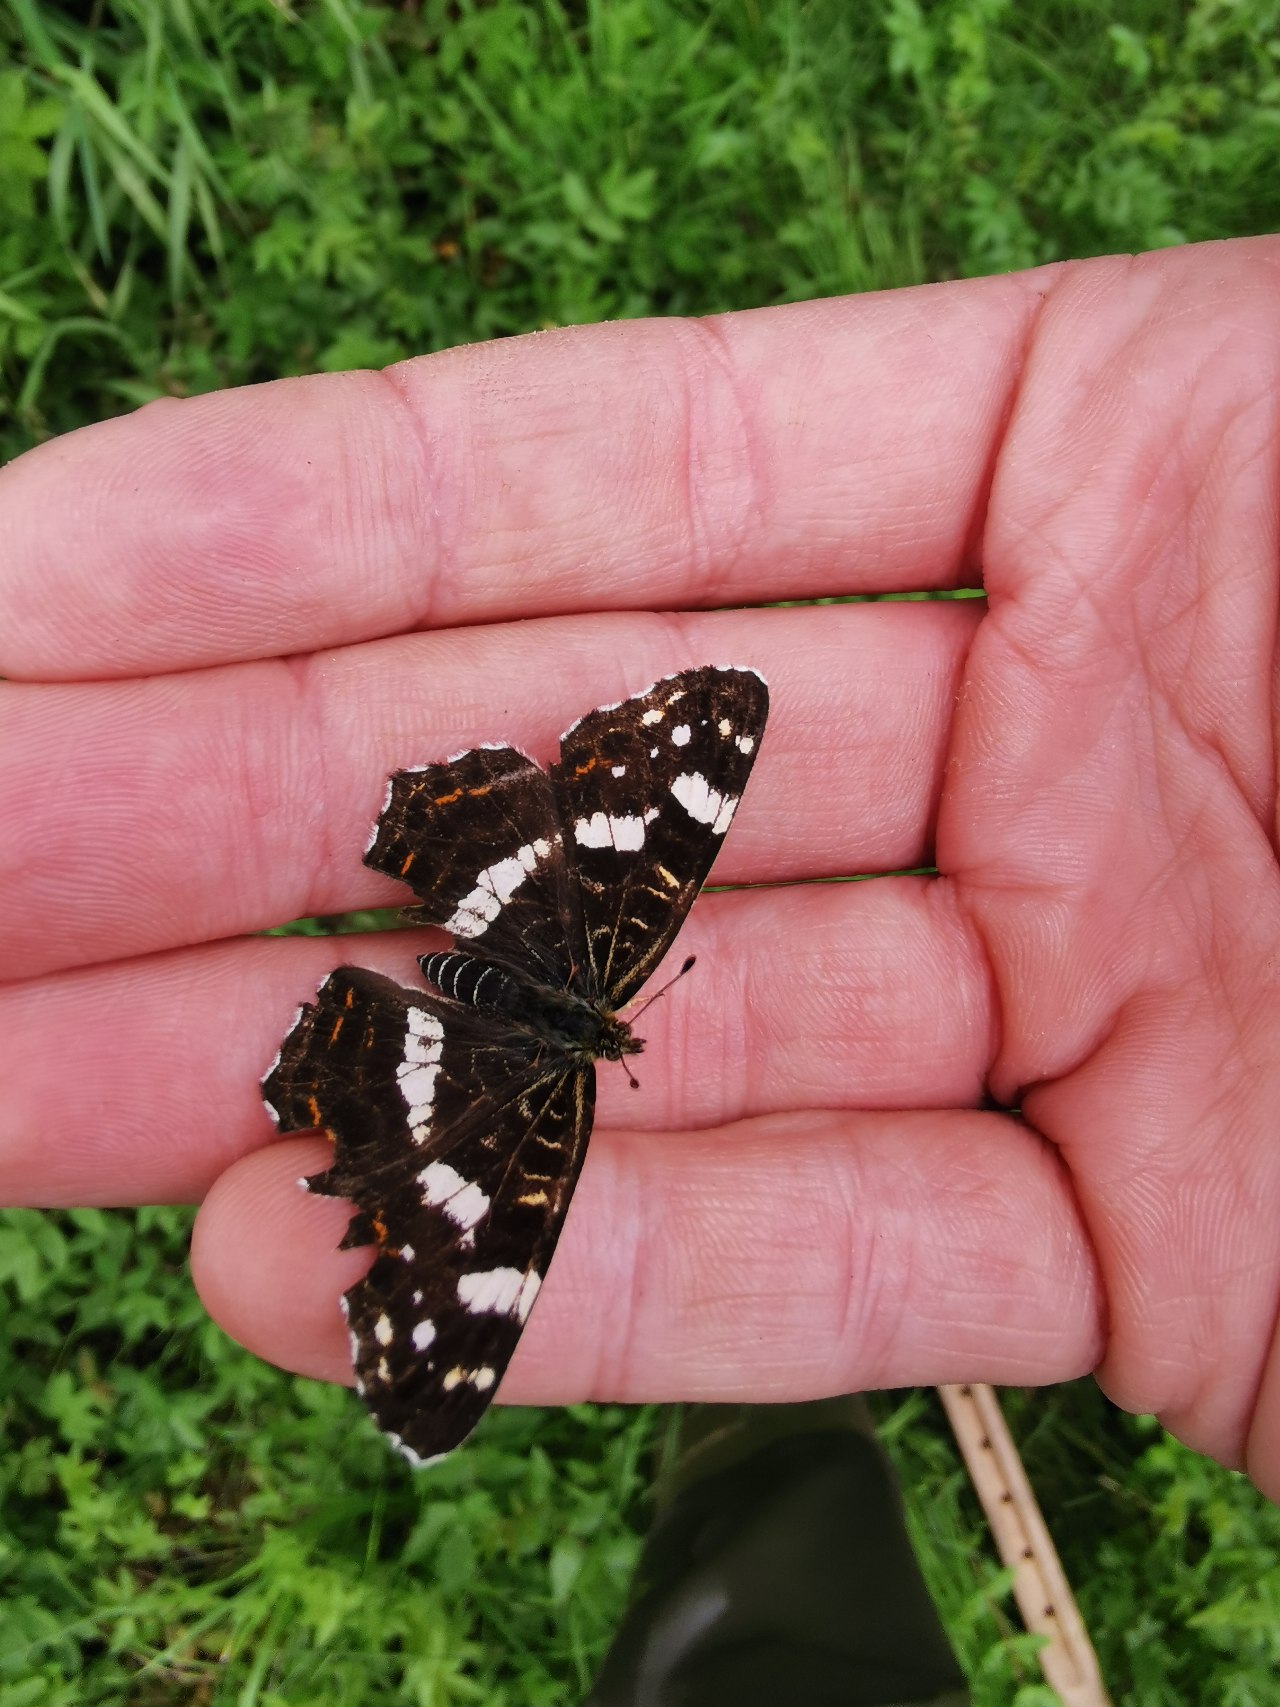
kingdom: Animalia
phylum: Arthropoda
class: Insecta
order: Lepidoptera
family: Nymphalidae
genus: Araschnia
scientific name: Araschnia levana
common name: Nældesommerfugl
